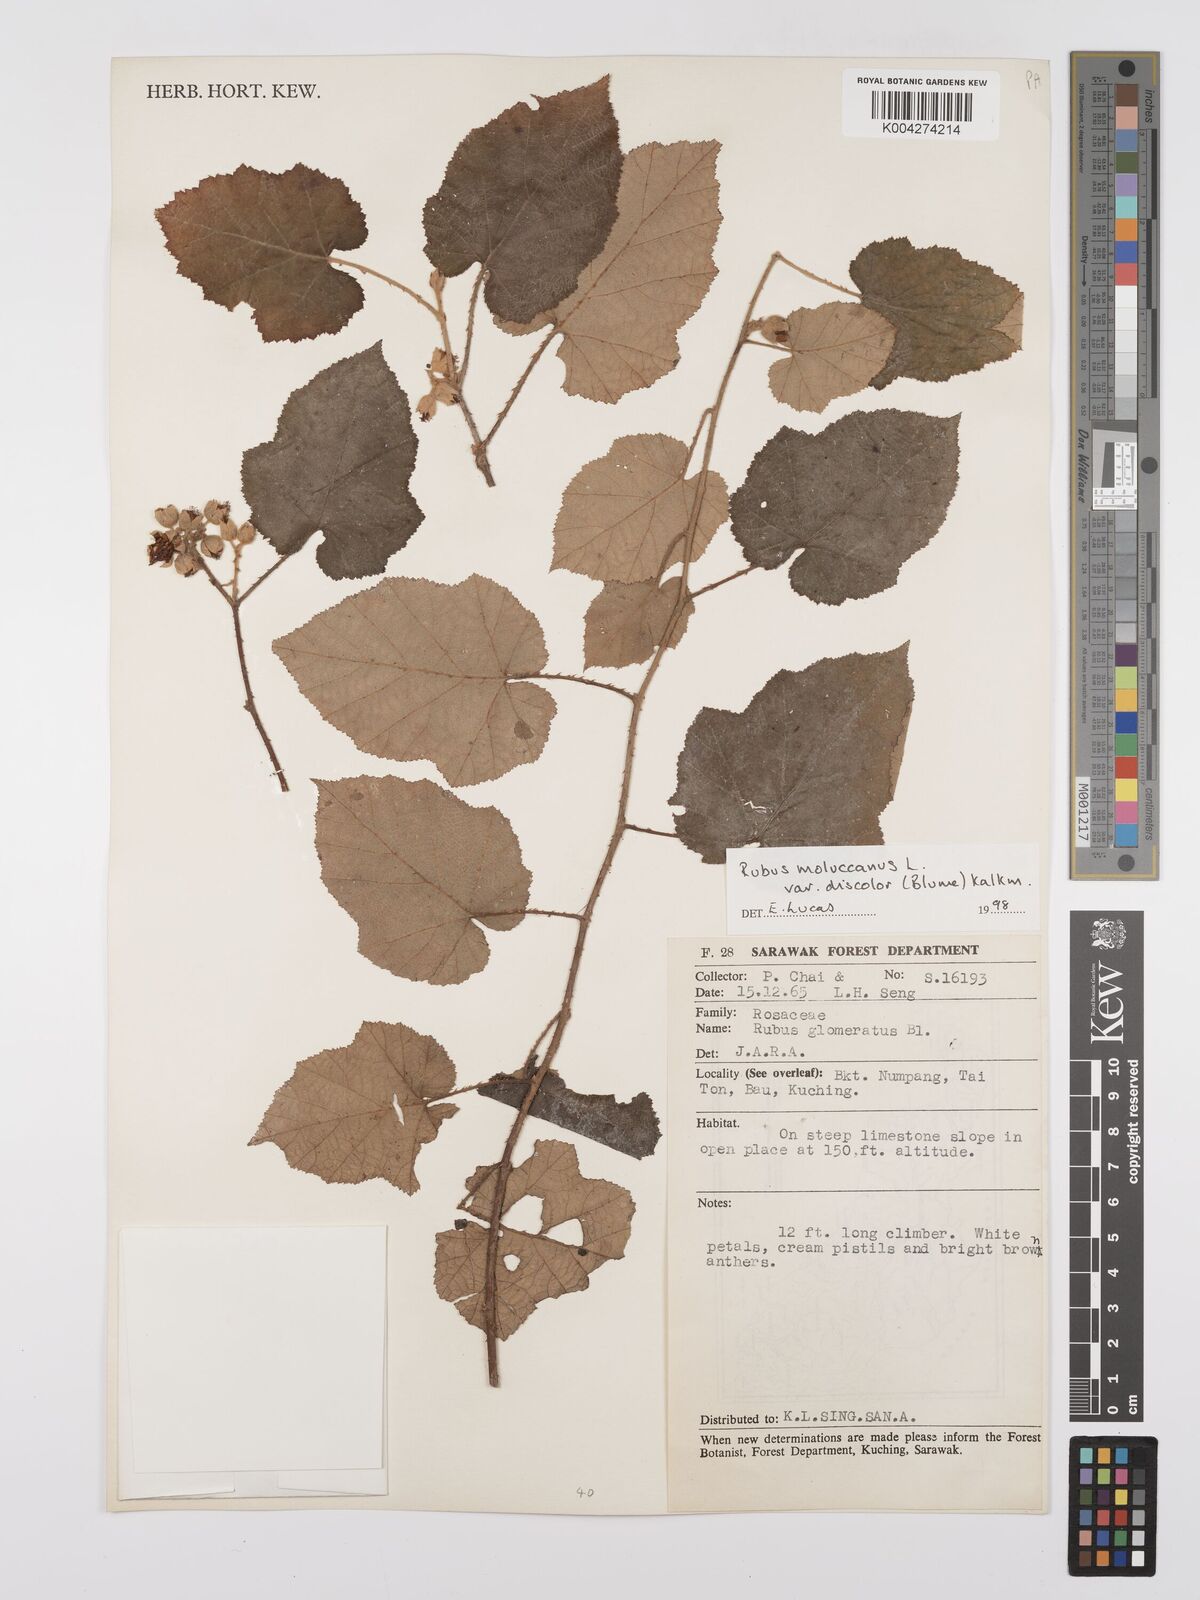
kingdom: Plantae
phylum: Tracheophyta
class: Magnoliopsida
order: Rosales
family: Rosaceae
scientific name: Rosaceae
